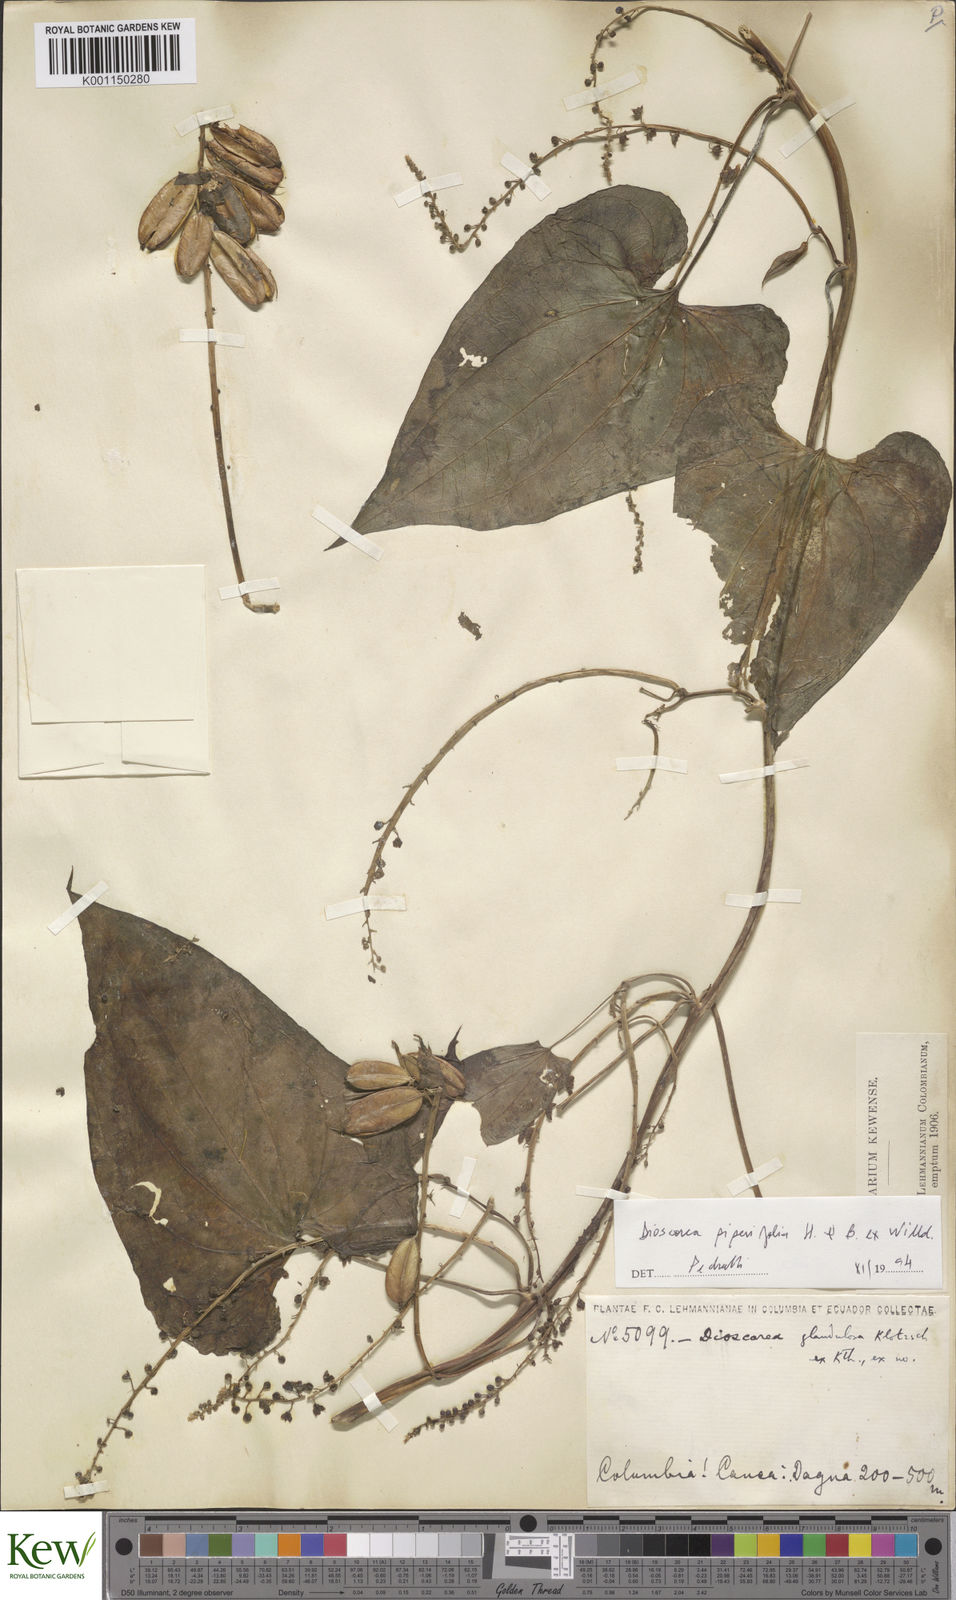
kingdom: Plantae
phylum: Tracheophyta
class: Liliopsida
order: Dioscoreales
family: Dioscoreaceae
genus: Dioscorea
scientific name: Dioscorea glandulosa
